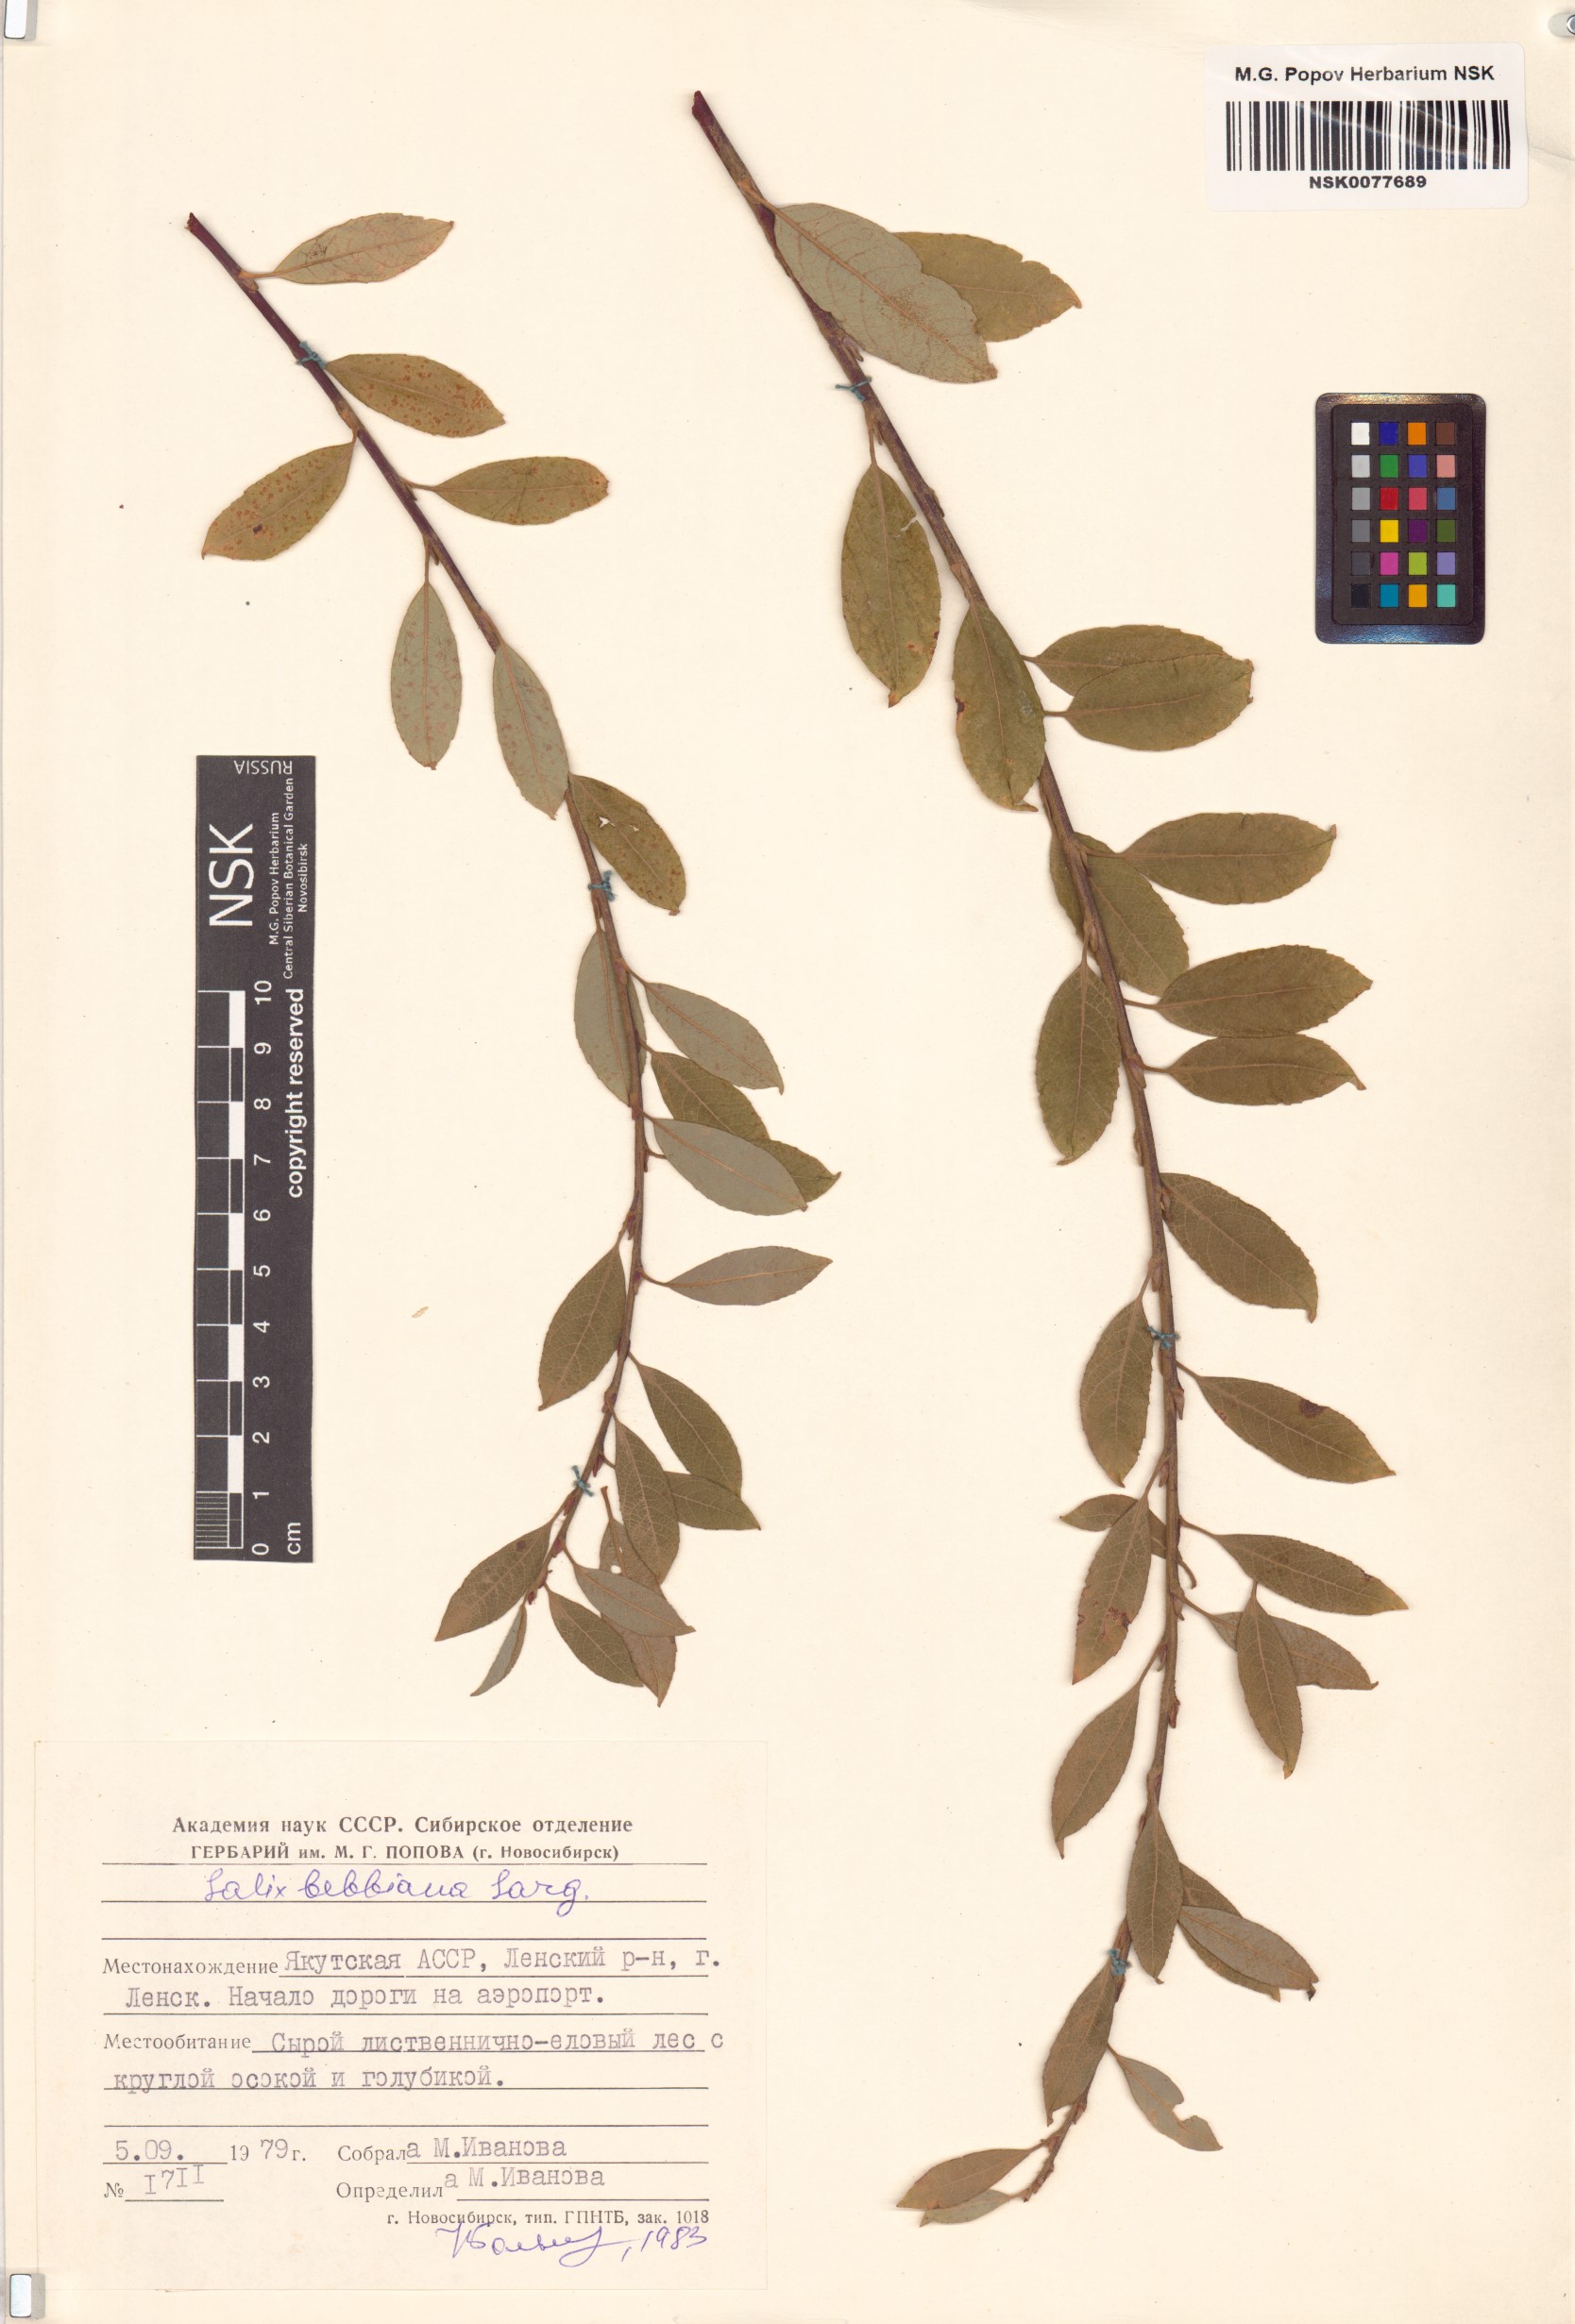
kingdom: Plantae
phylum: Tracheophyta
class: Magnoliopsida
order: Malpighiales
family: Salicaceae
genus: Salix
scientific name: Salix bebbiana
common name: Bebb's willow
